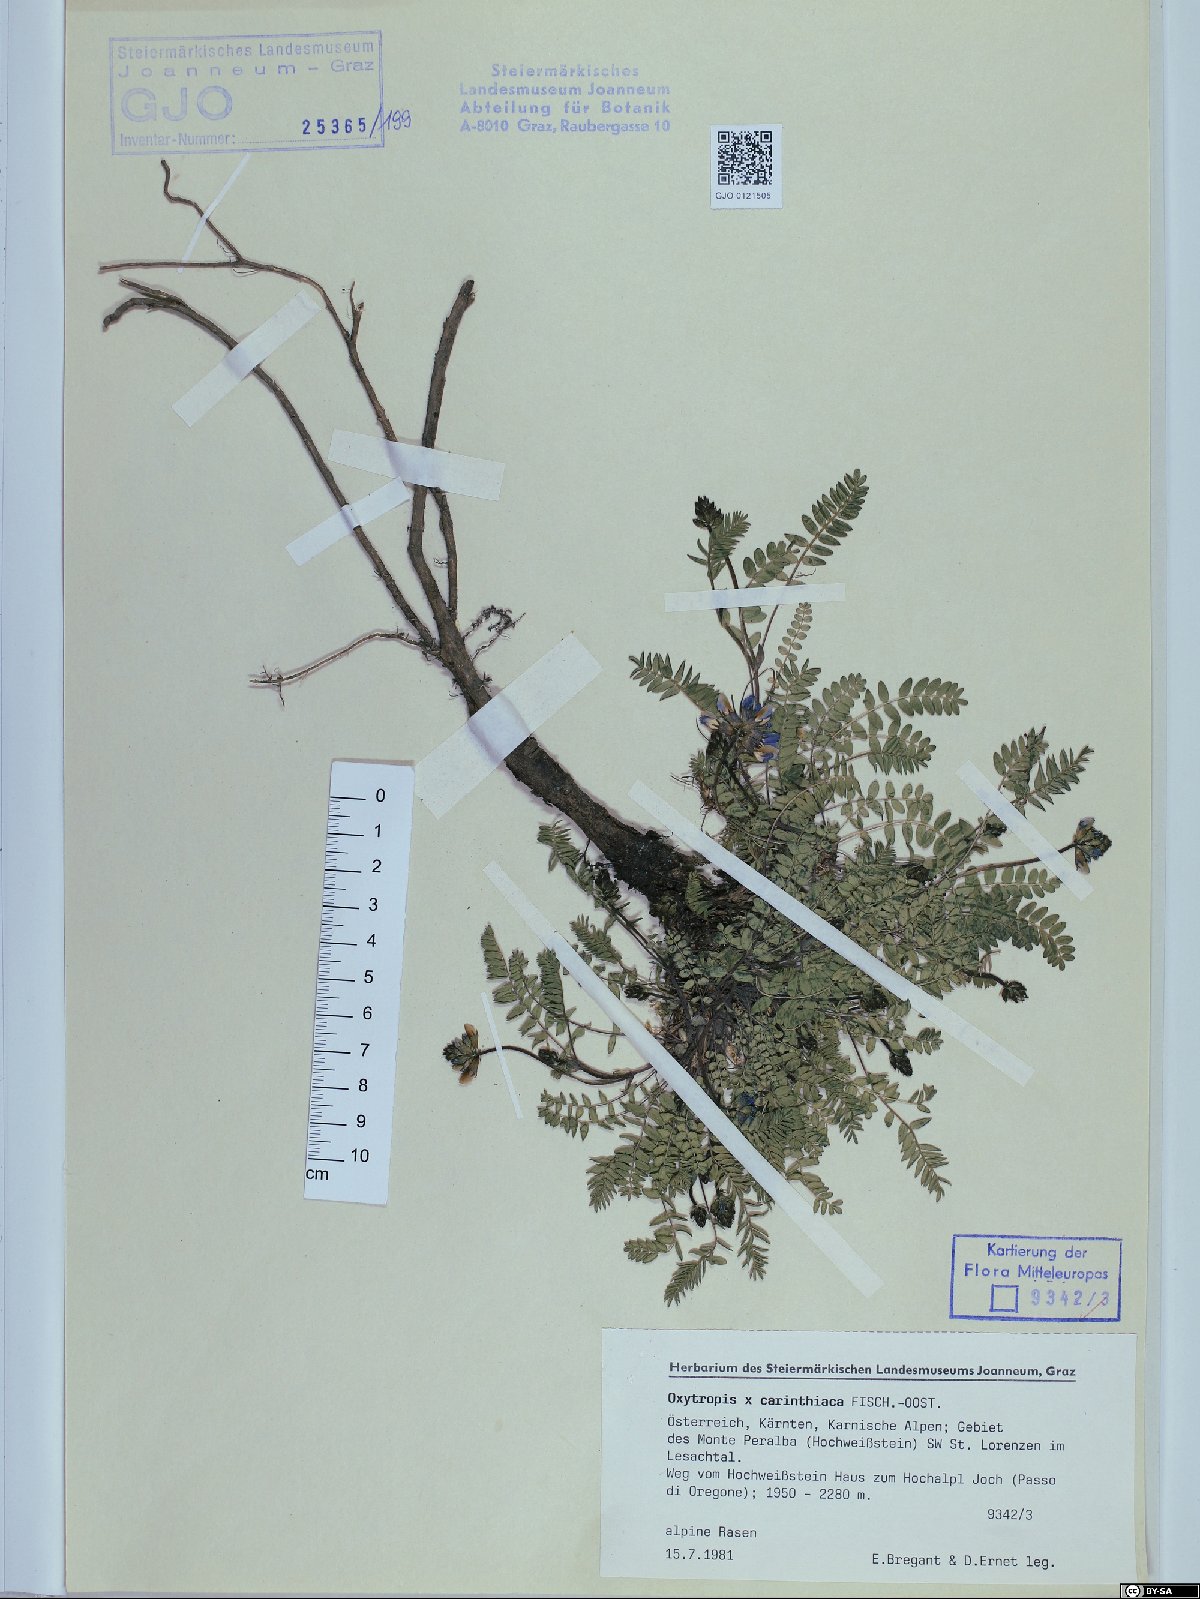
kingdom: Plantae
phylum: Tracheophyta
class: Magnoliopsida
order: Fabales
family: Fabaceae
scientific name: Fabaceae
